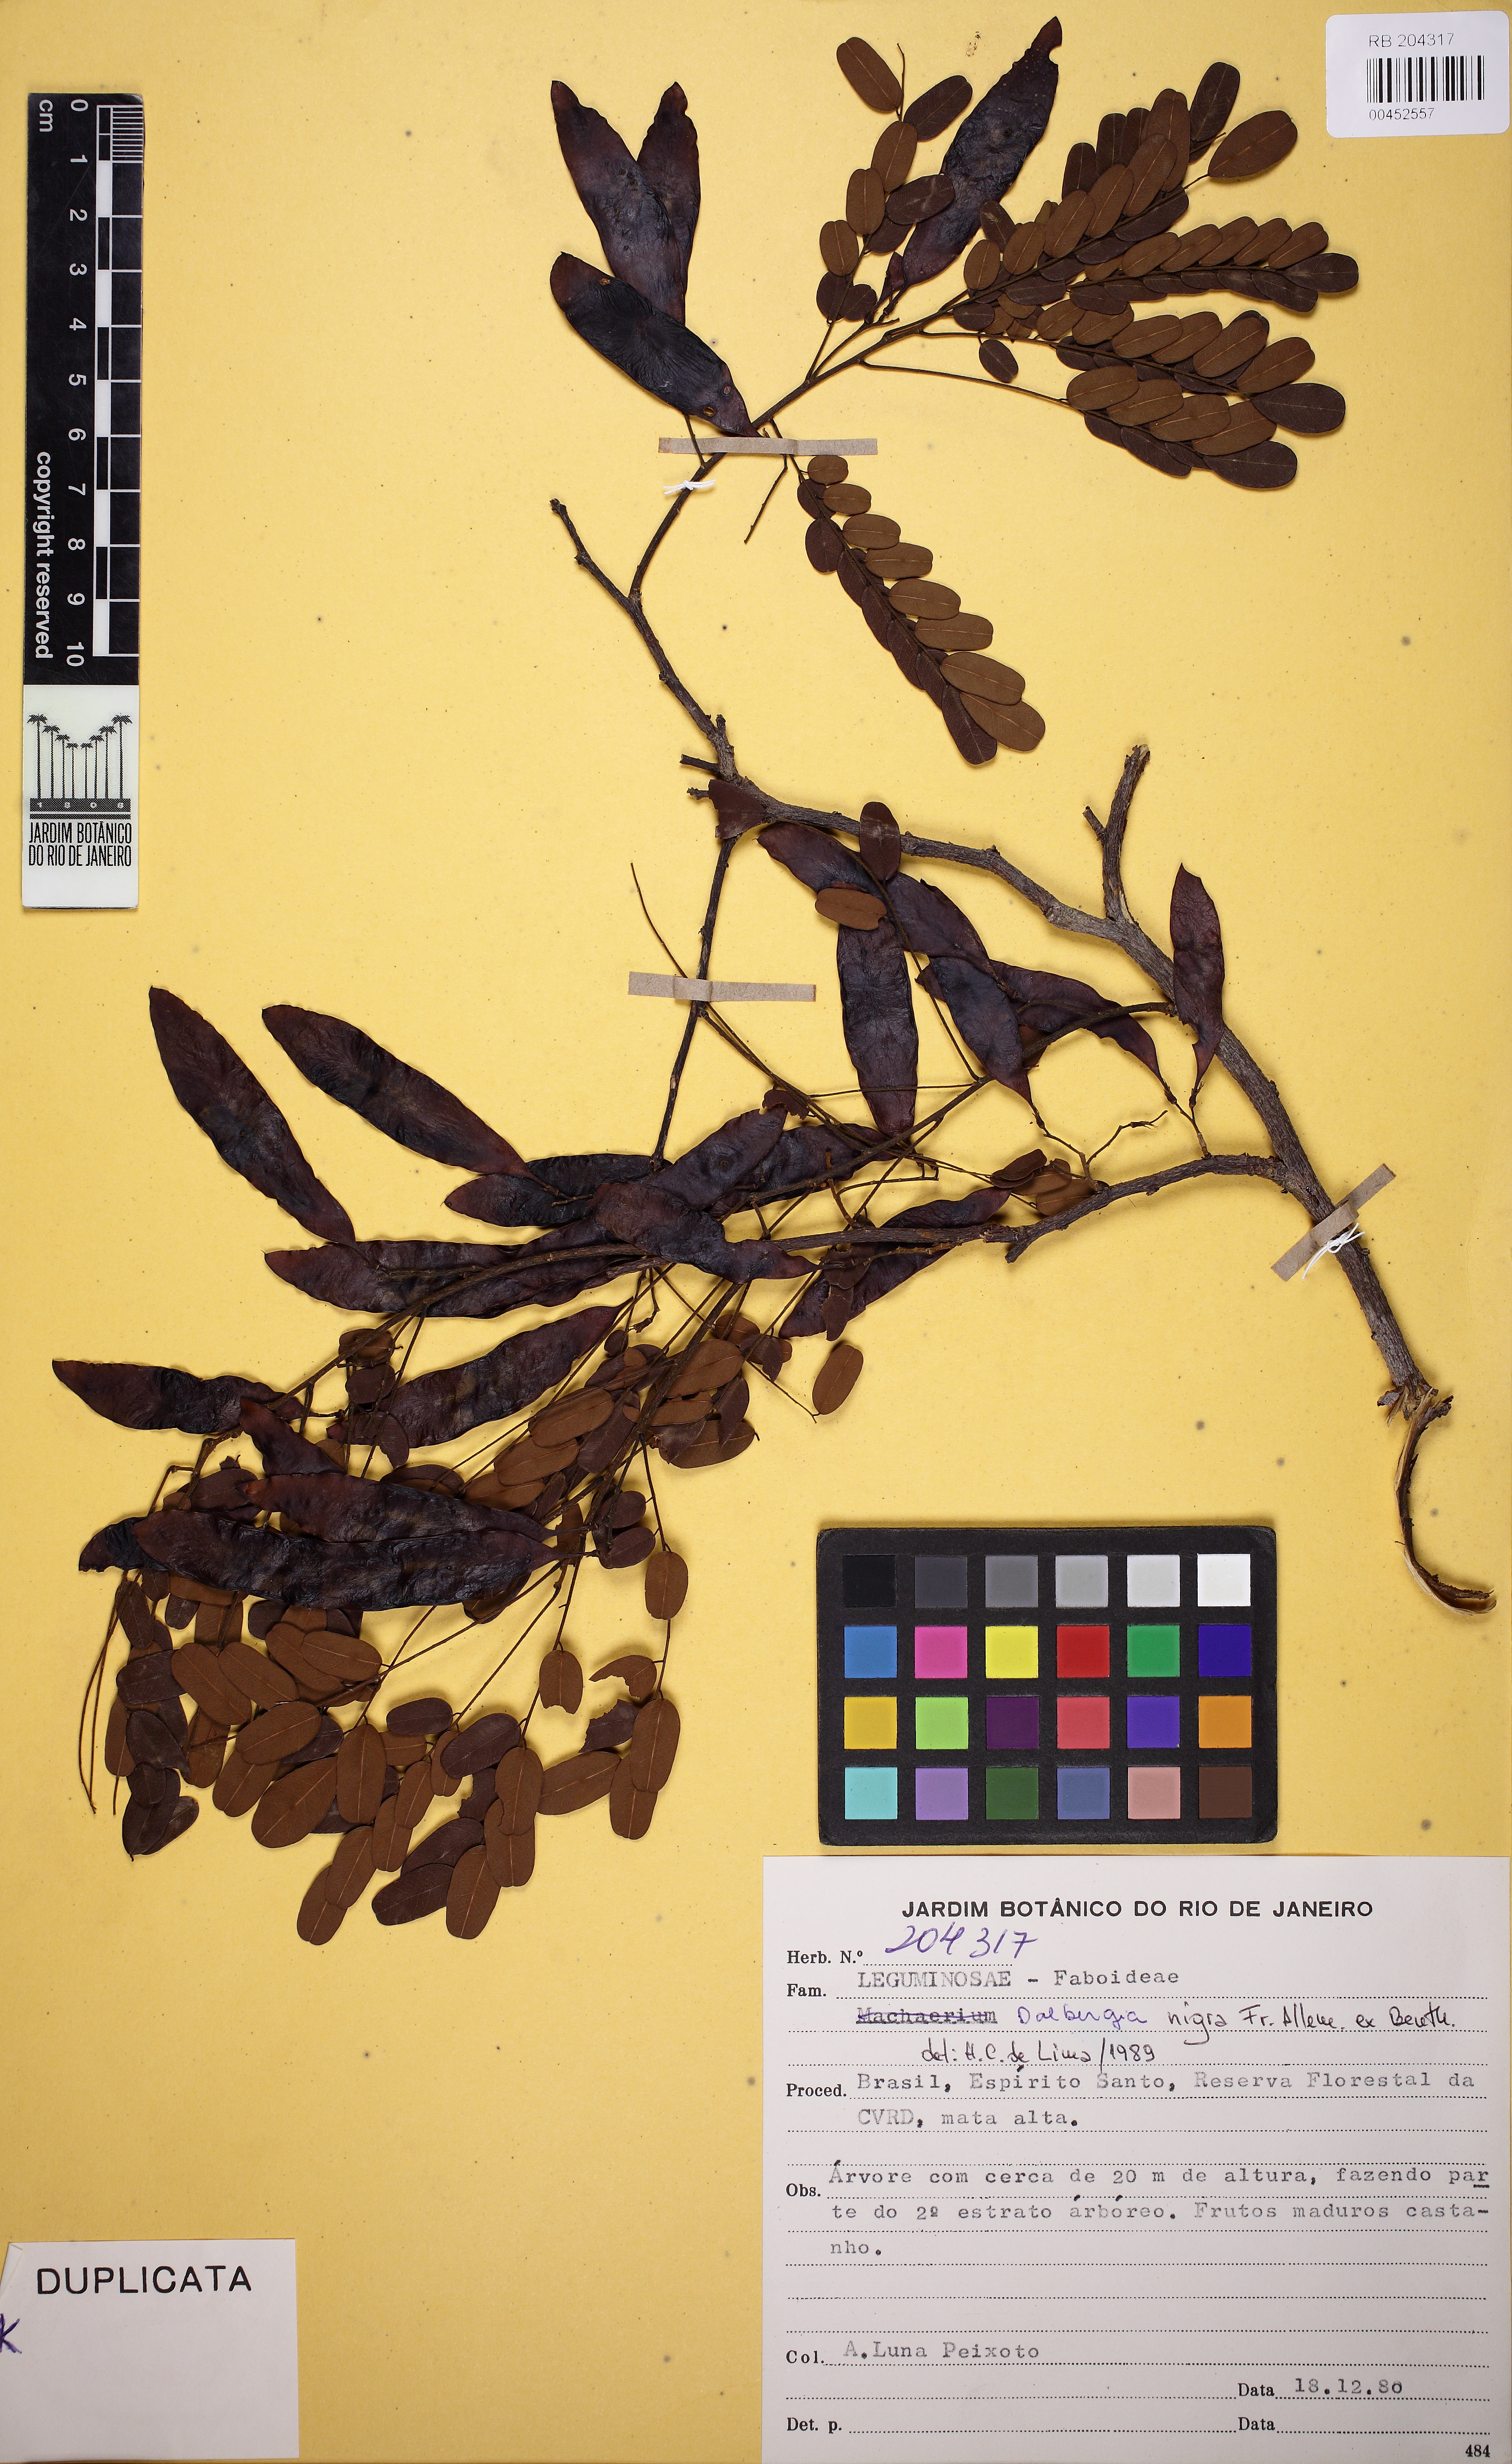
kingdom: Plantae
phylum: Tracheophyta
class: Magnoliopsida
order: Fabales
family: Fabaceae
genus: Dalbergia
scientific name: Dalbergia nigra
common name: Bahia rosewood
